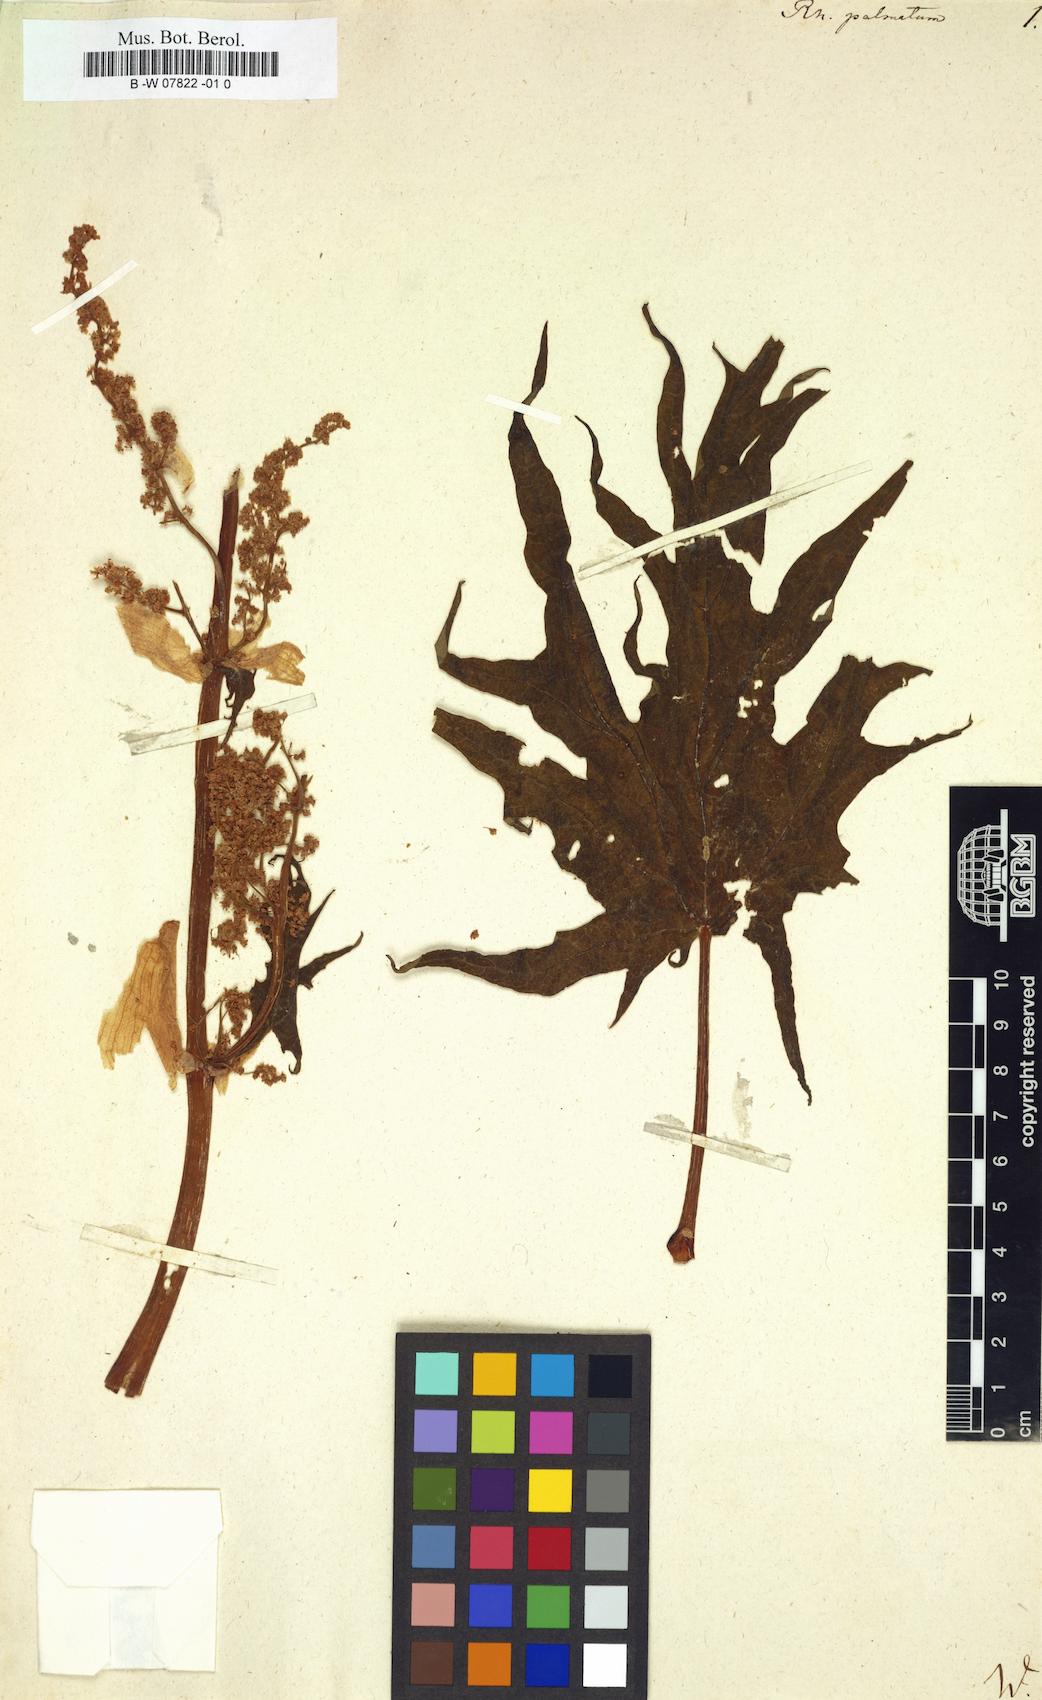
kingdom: Plantae
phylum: Tracheophyta
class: Magnoliopsida
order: Caryophyllales
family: Polygonaceae
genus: Rheum
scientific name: Rheum palmatum
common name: Ornamental rhubarb
